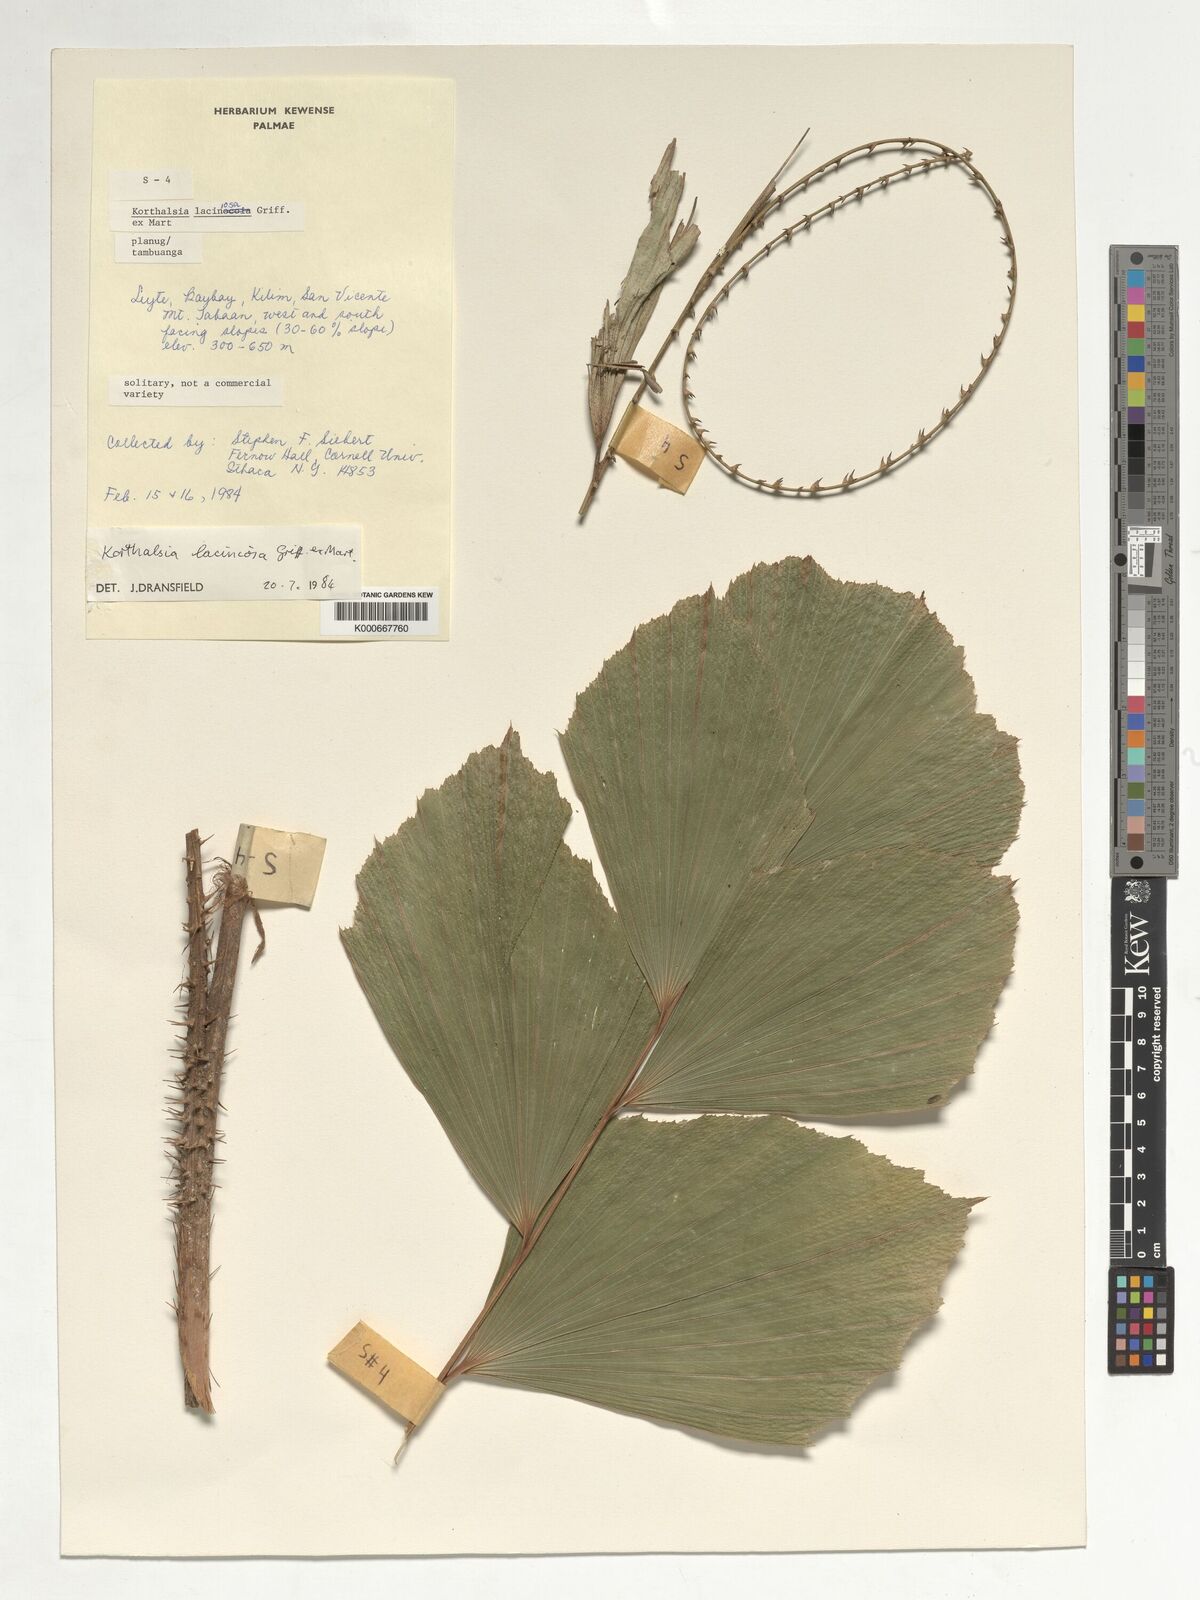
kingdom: Plantae
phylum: Tracheophyta
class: Liliopsida
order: Arecales
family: Arecaceae
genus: Korthalsia
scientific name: Korthalsia laciniosa
